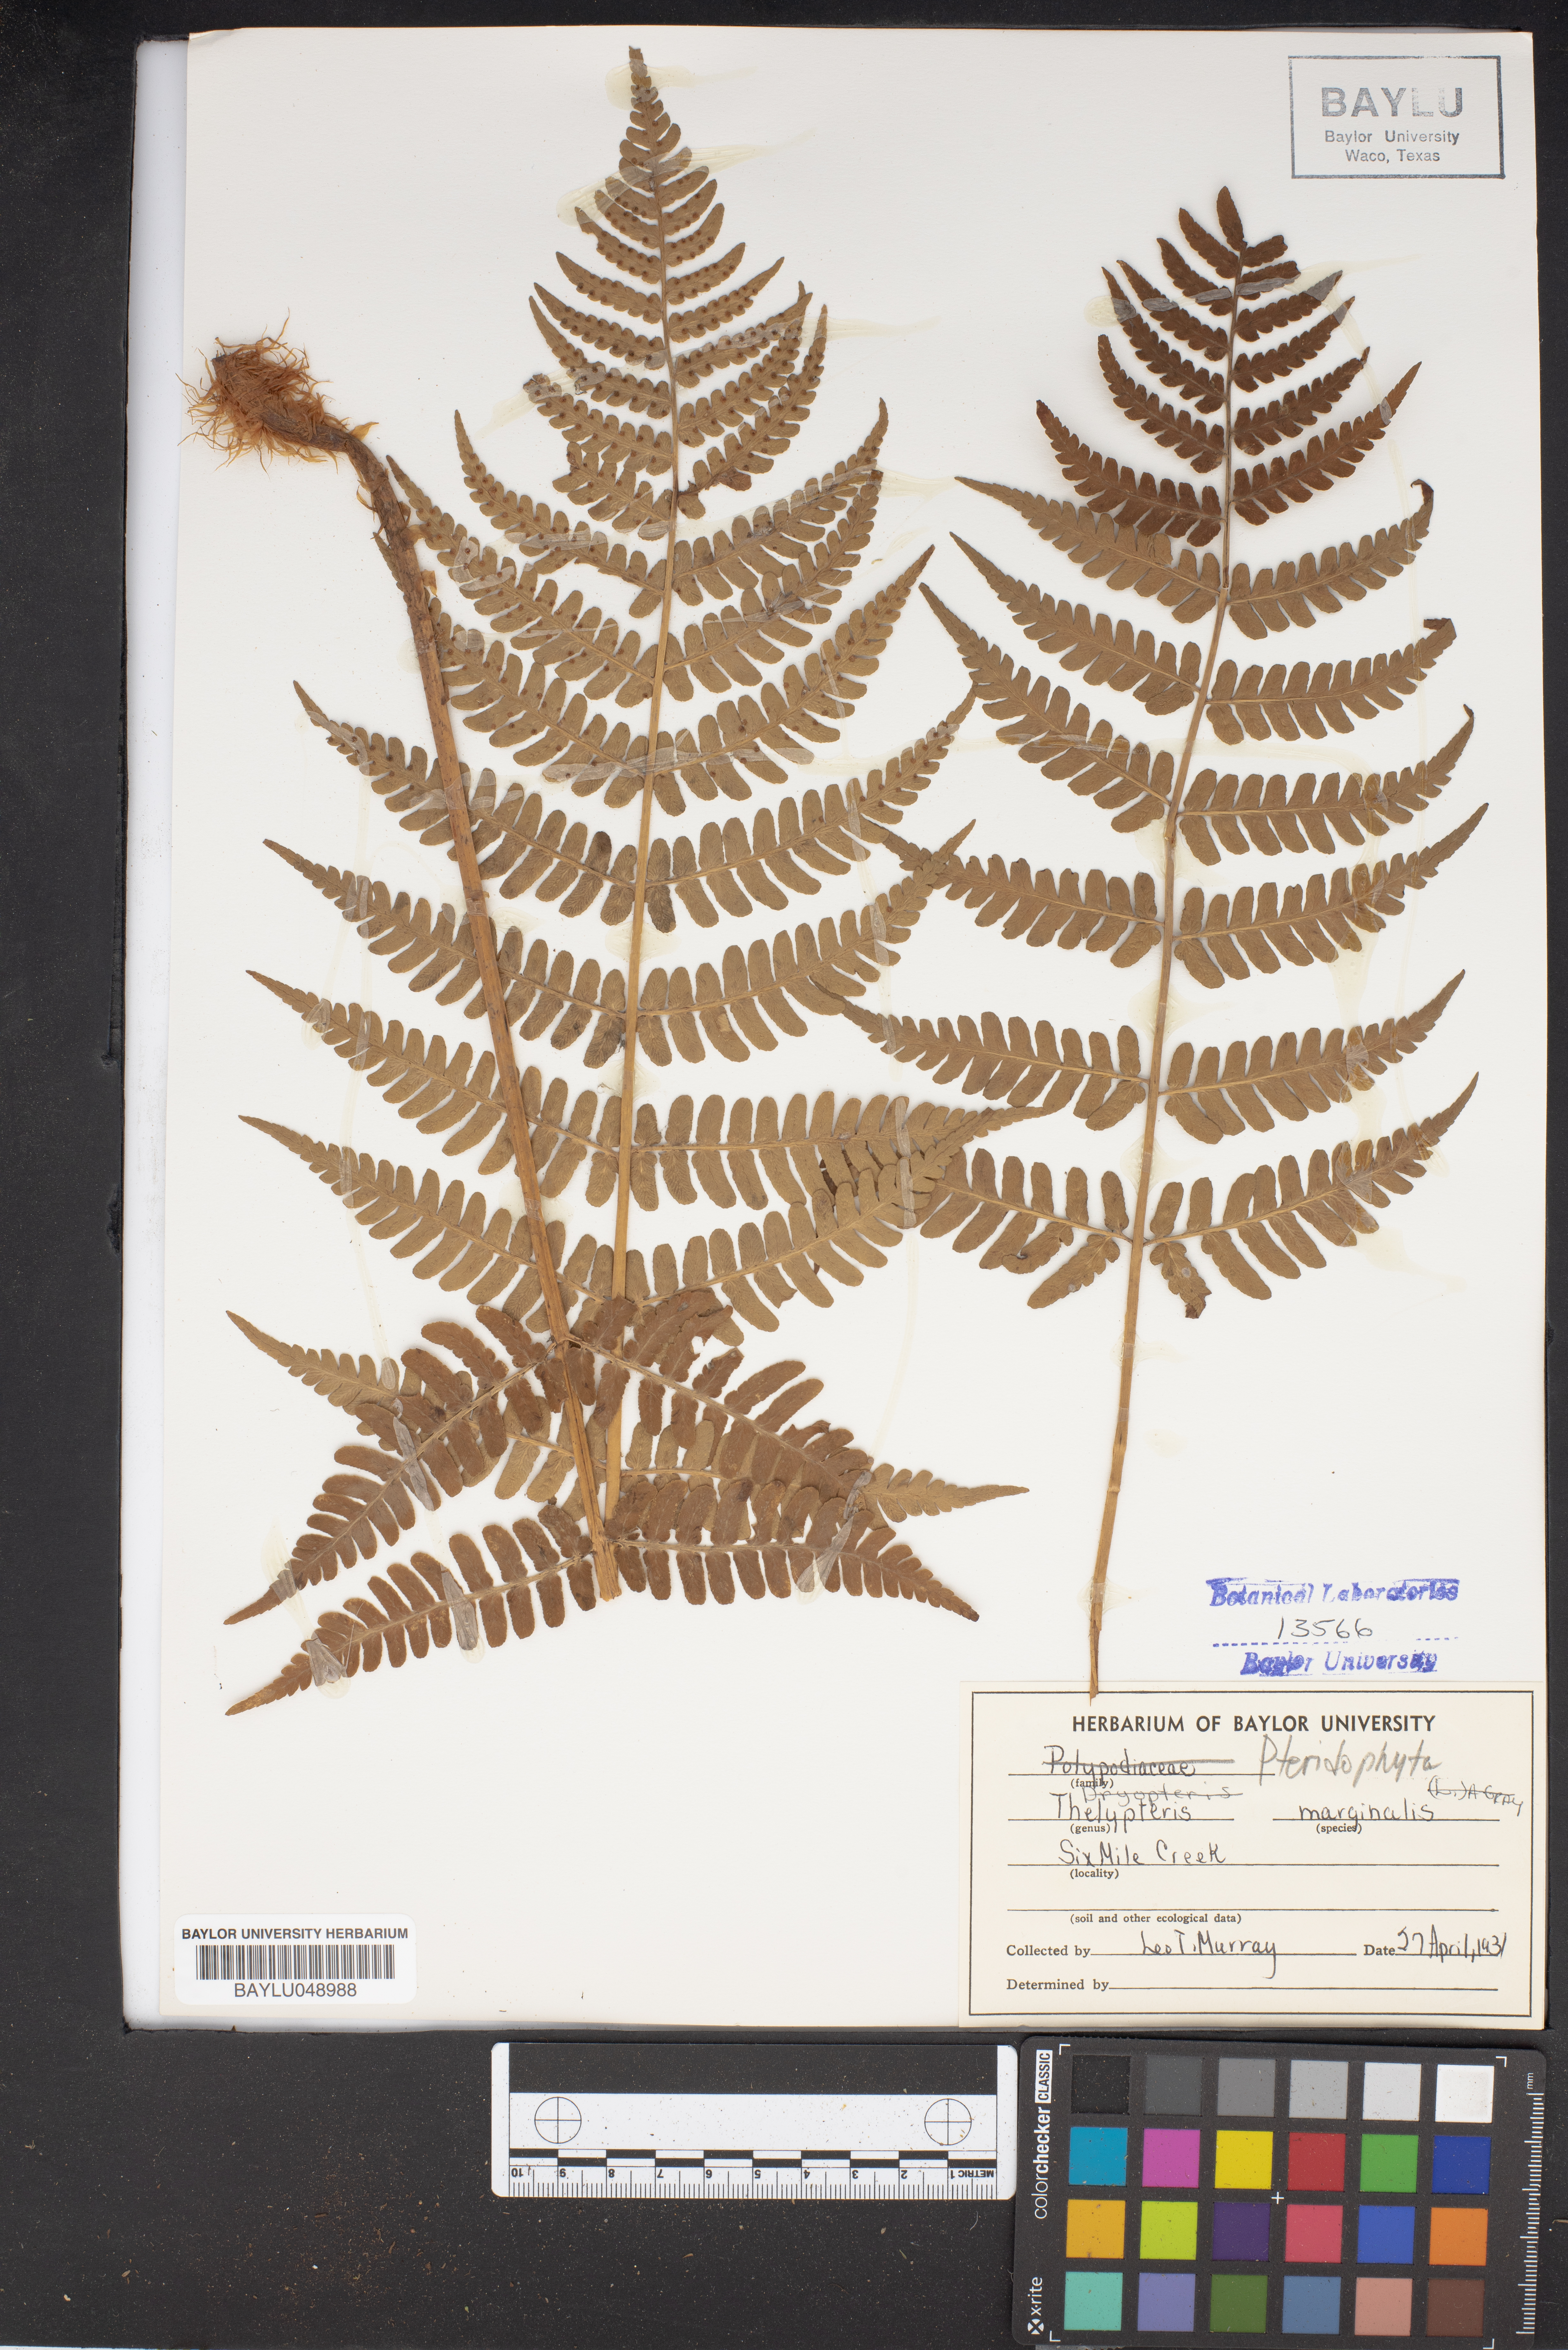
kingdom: Plantae
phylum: Tracheophyta
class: Polypodiopsida
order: Polypodiales
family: Dryopteridaceae
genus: Dryopteris
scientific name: Dryopteris marginalis
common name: Marginal wood fern
